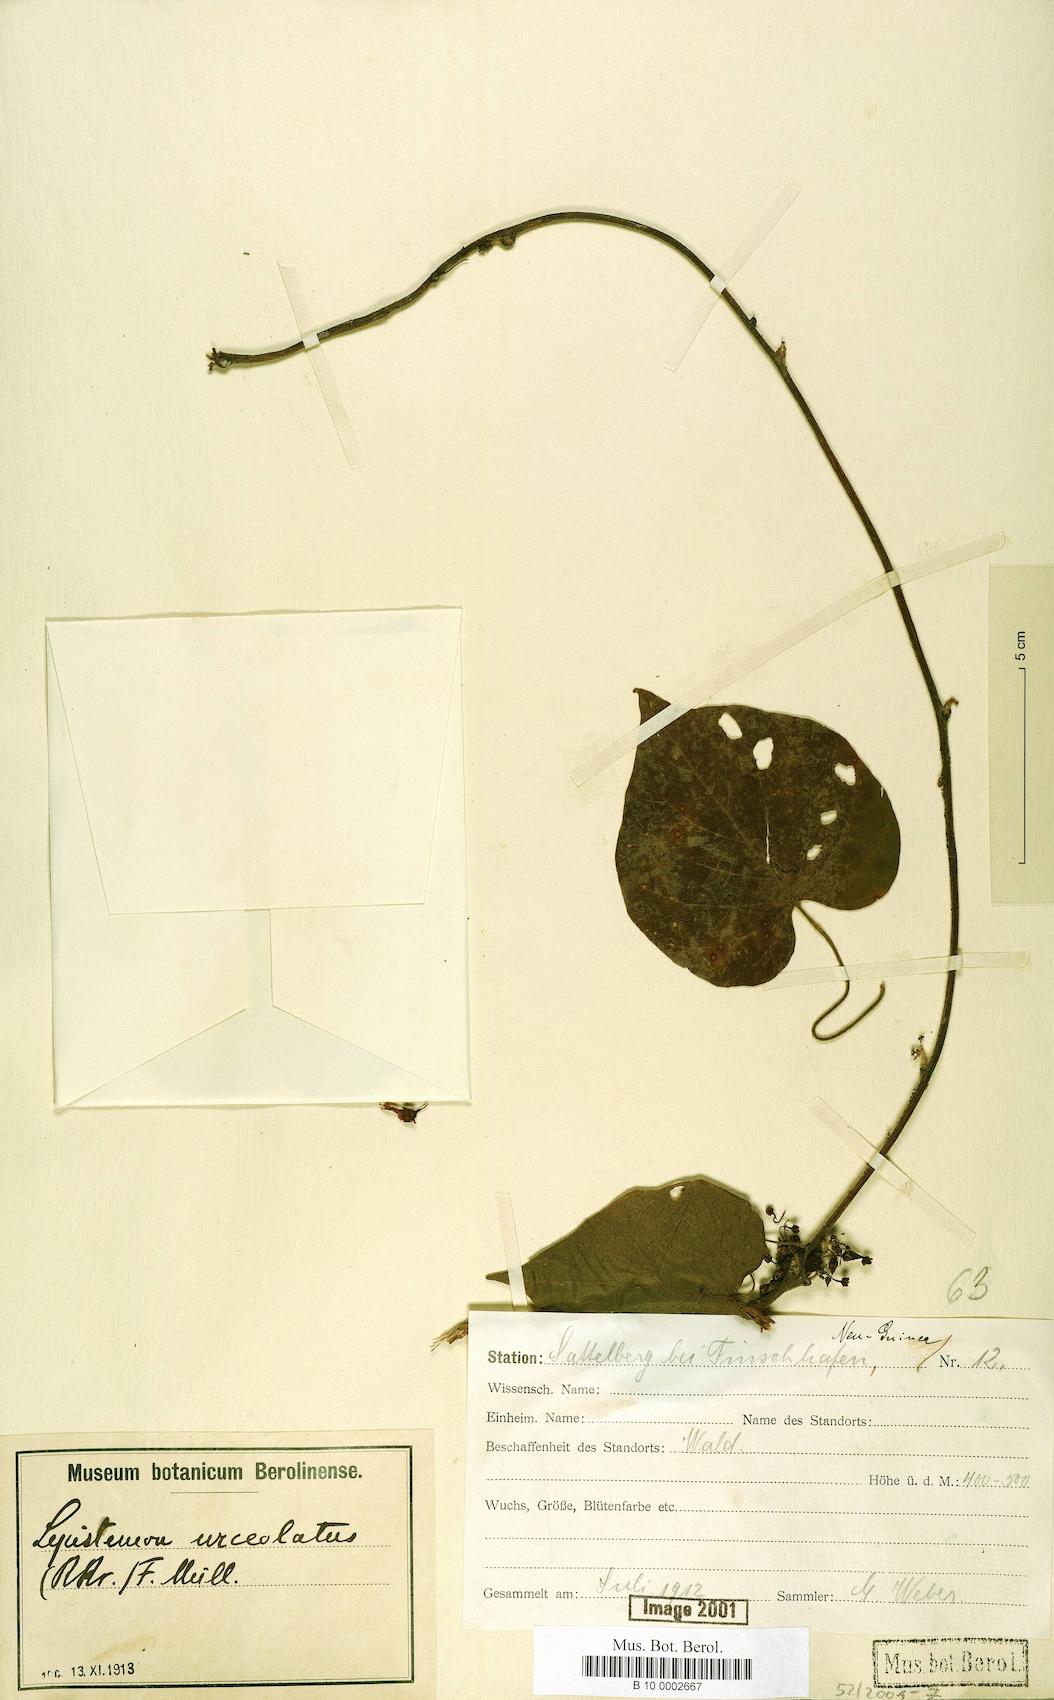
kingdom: Plantae
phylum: Tracheophyta
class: Magnoliopsida
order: Solanales
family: Convolvulaceae
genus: Lepistemon
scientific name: Lepistemon urceolatus
